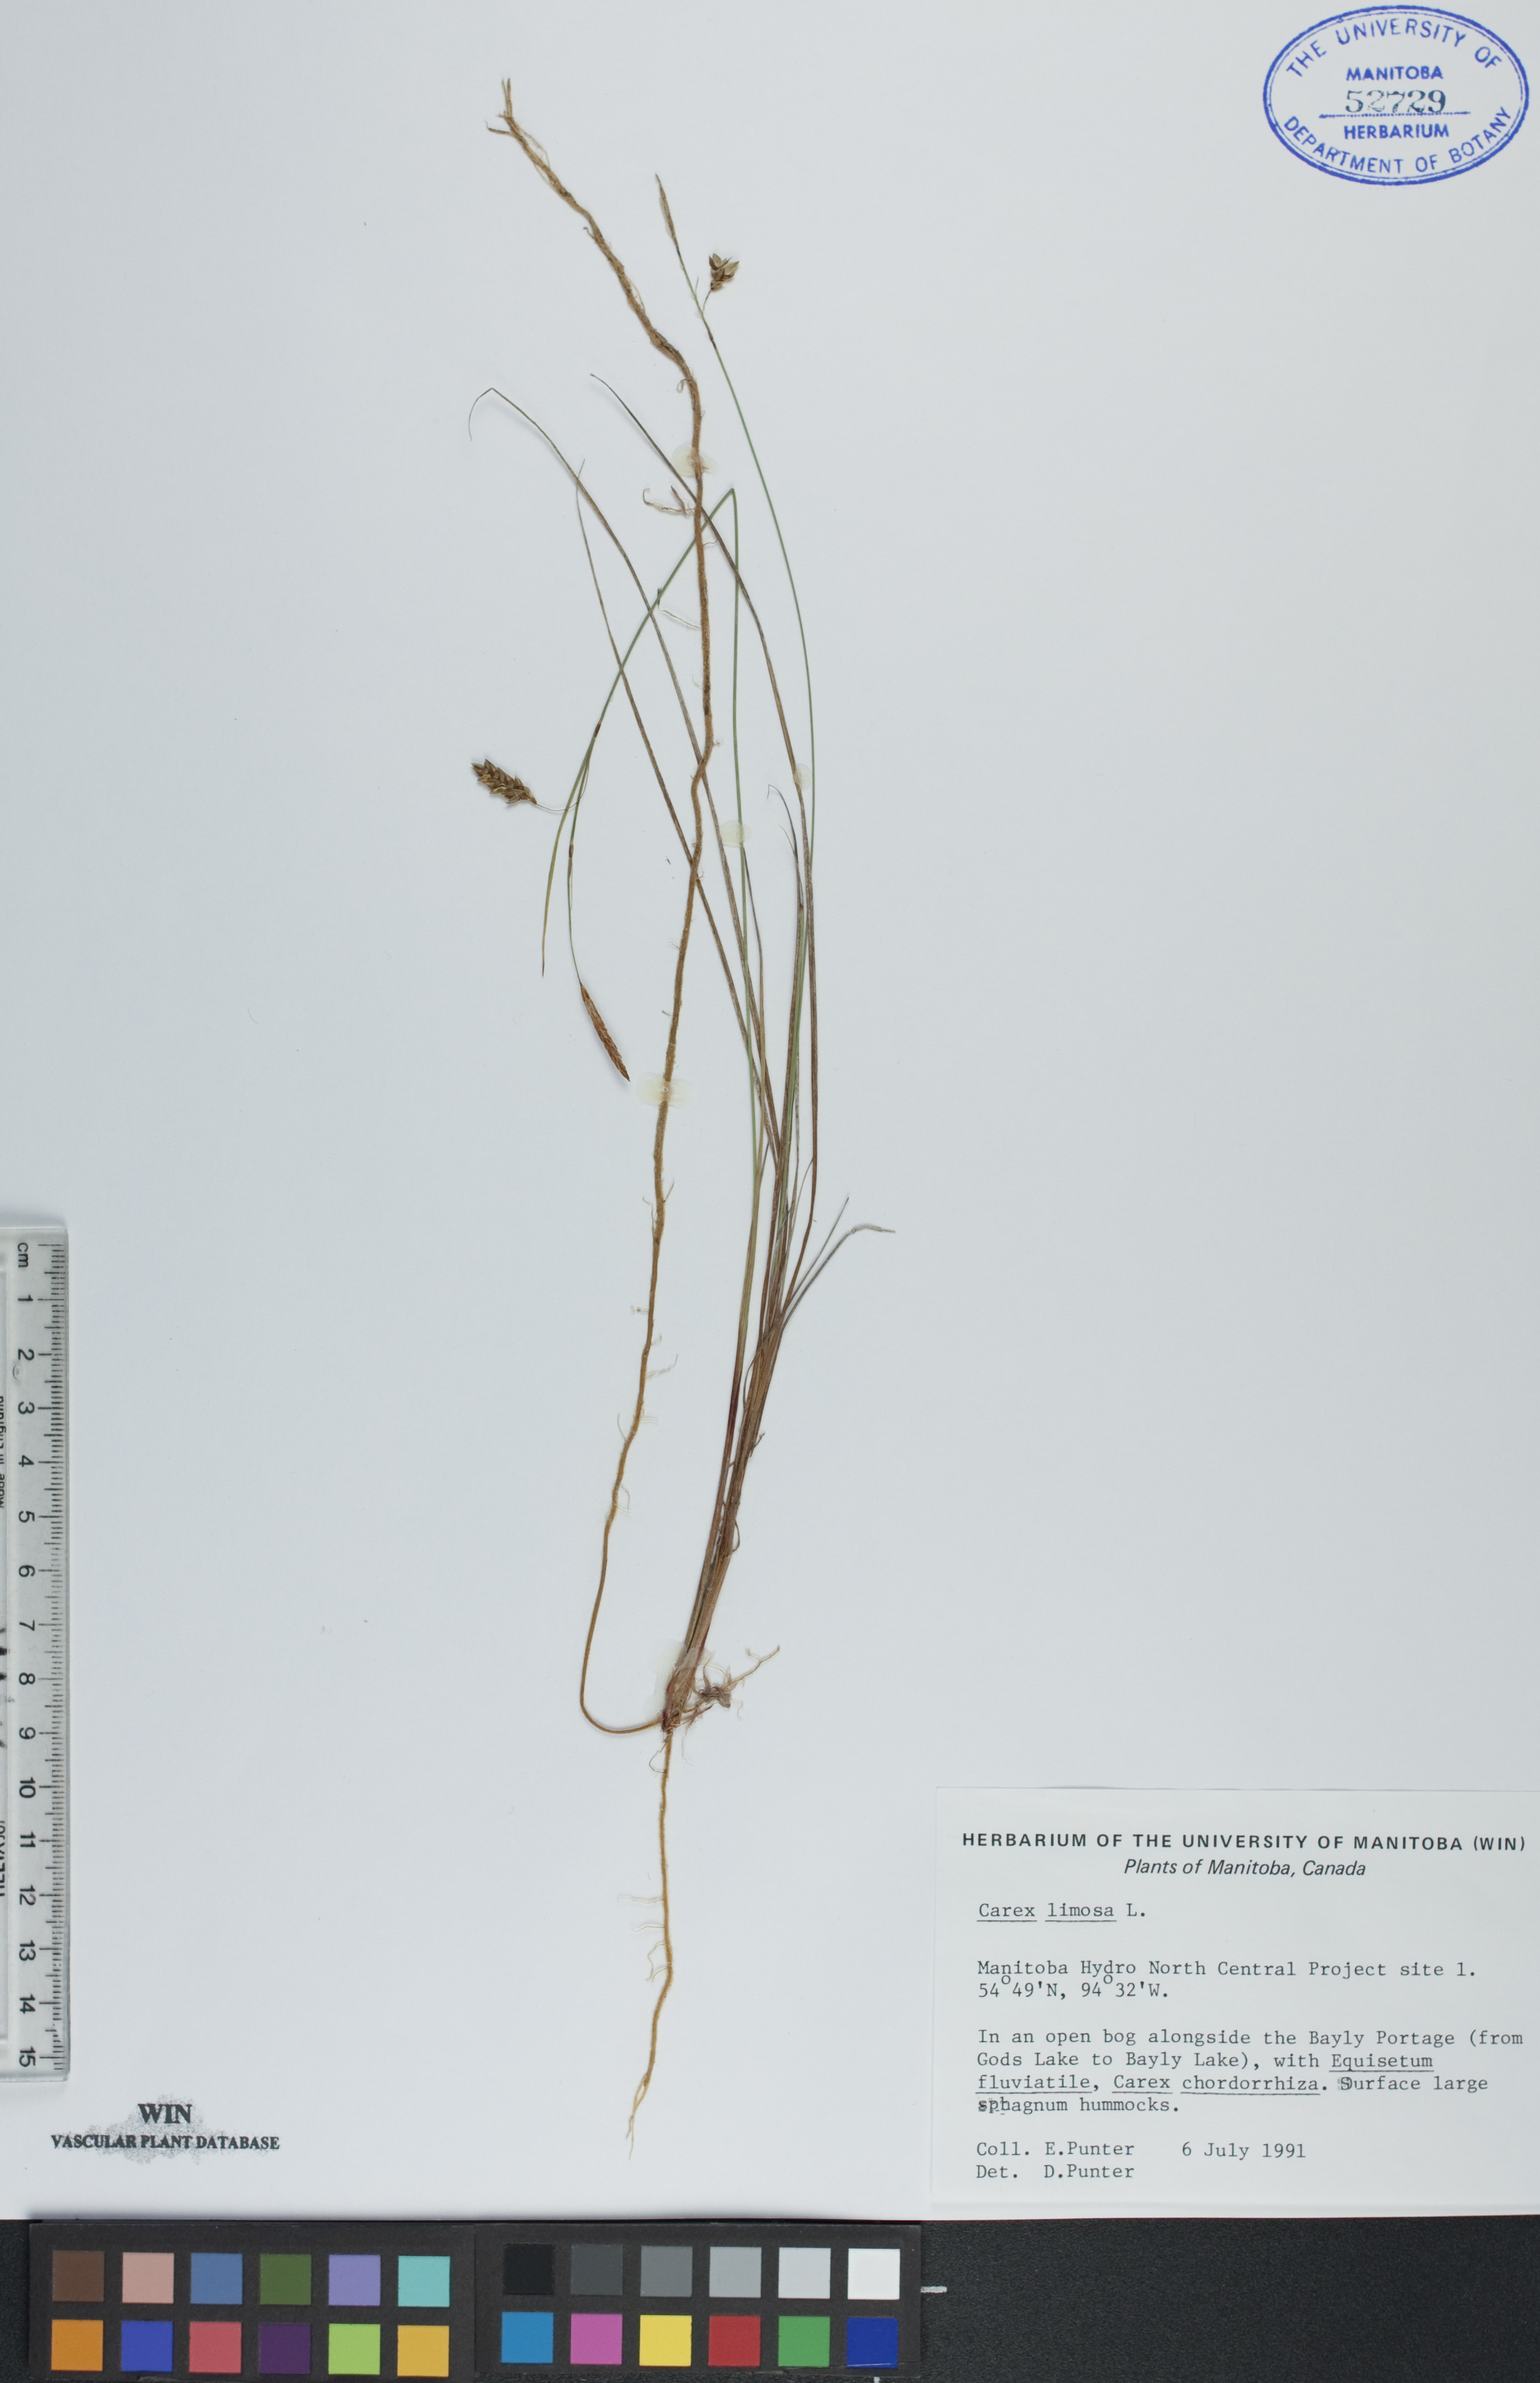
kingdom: Plantae
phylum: Tracheophyta
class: Liliopsida
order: Poales
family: Cyperaceae
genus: Carex
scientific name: Carex limosa
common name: Bog sedge
